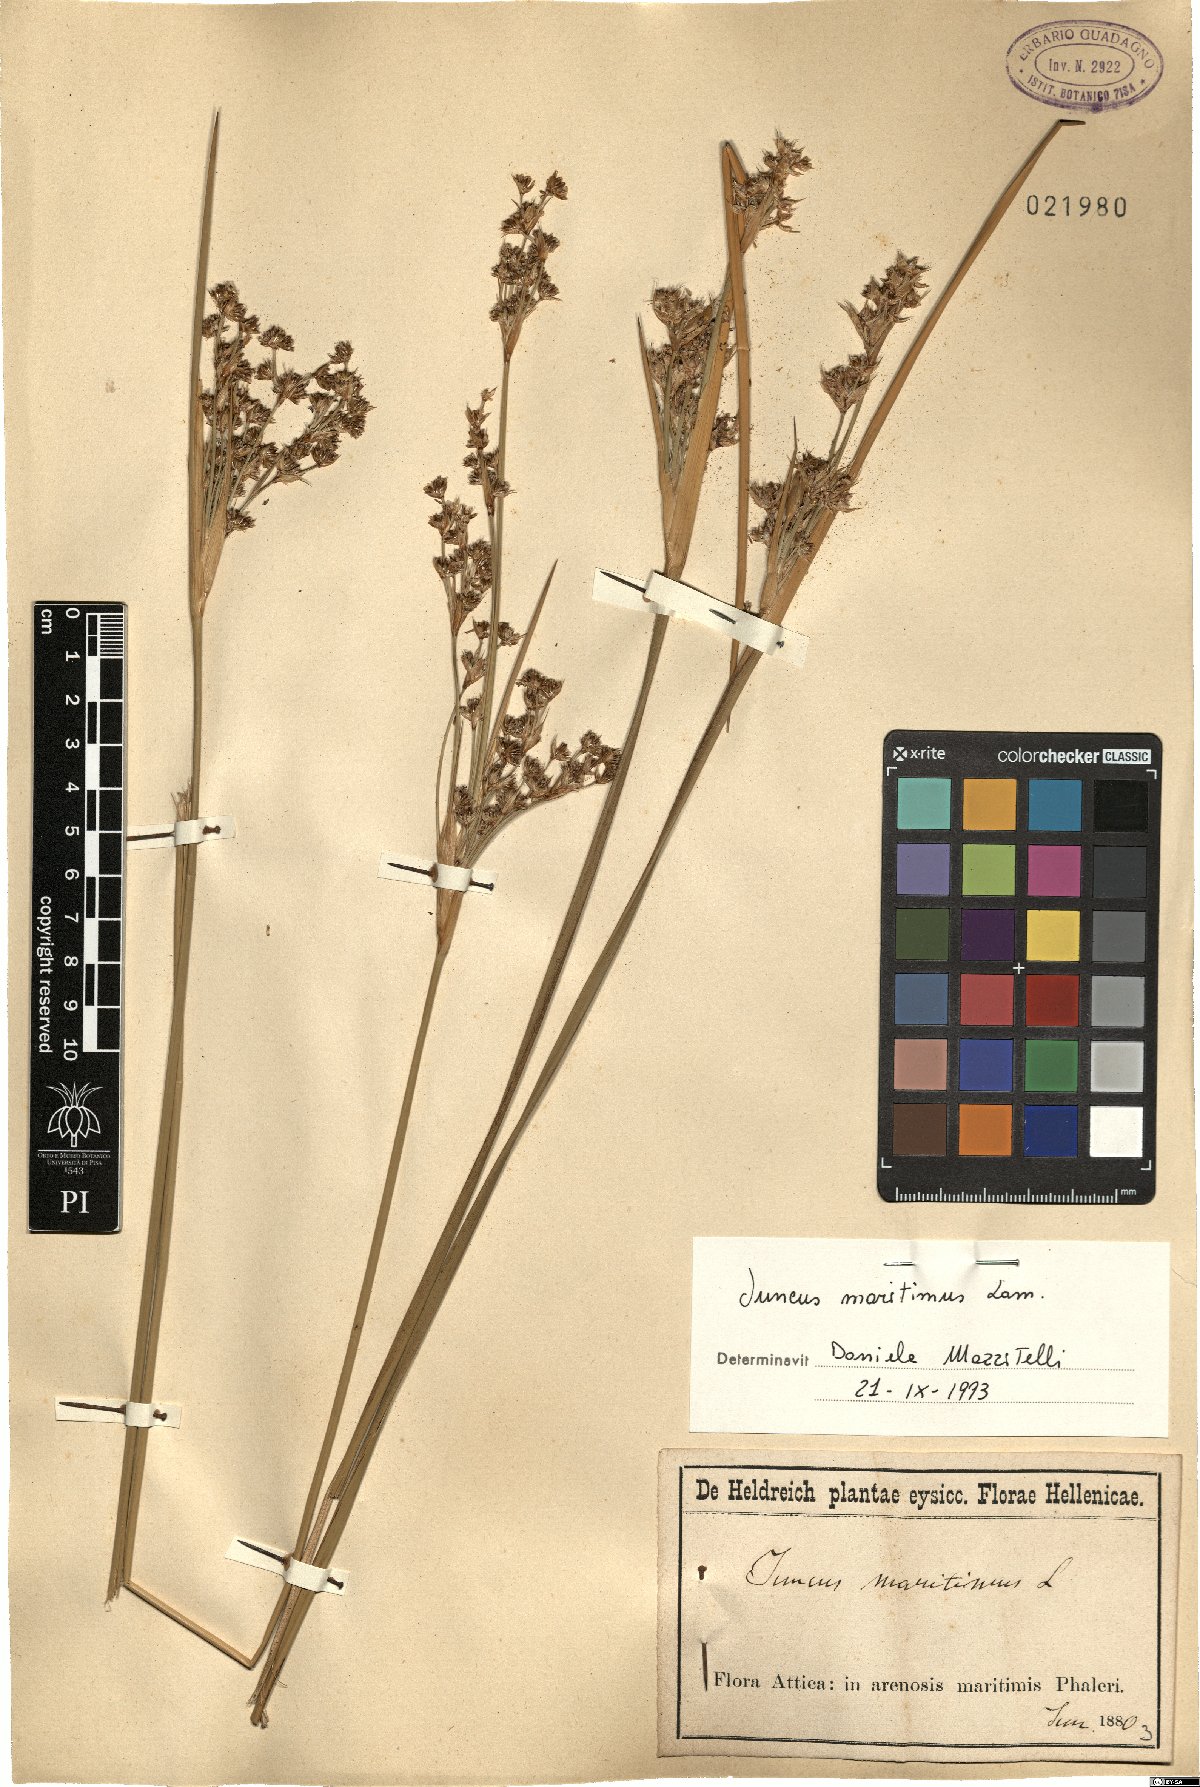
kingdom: Plantae
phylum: Tracheophyta
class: Liliopsida
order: Poales
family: Juncaceae
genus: Juncus
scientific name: Juncus maritimus
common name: Sea rush
